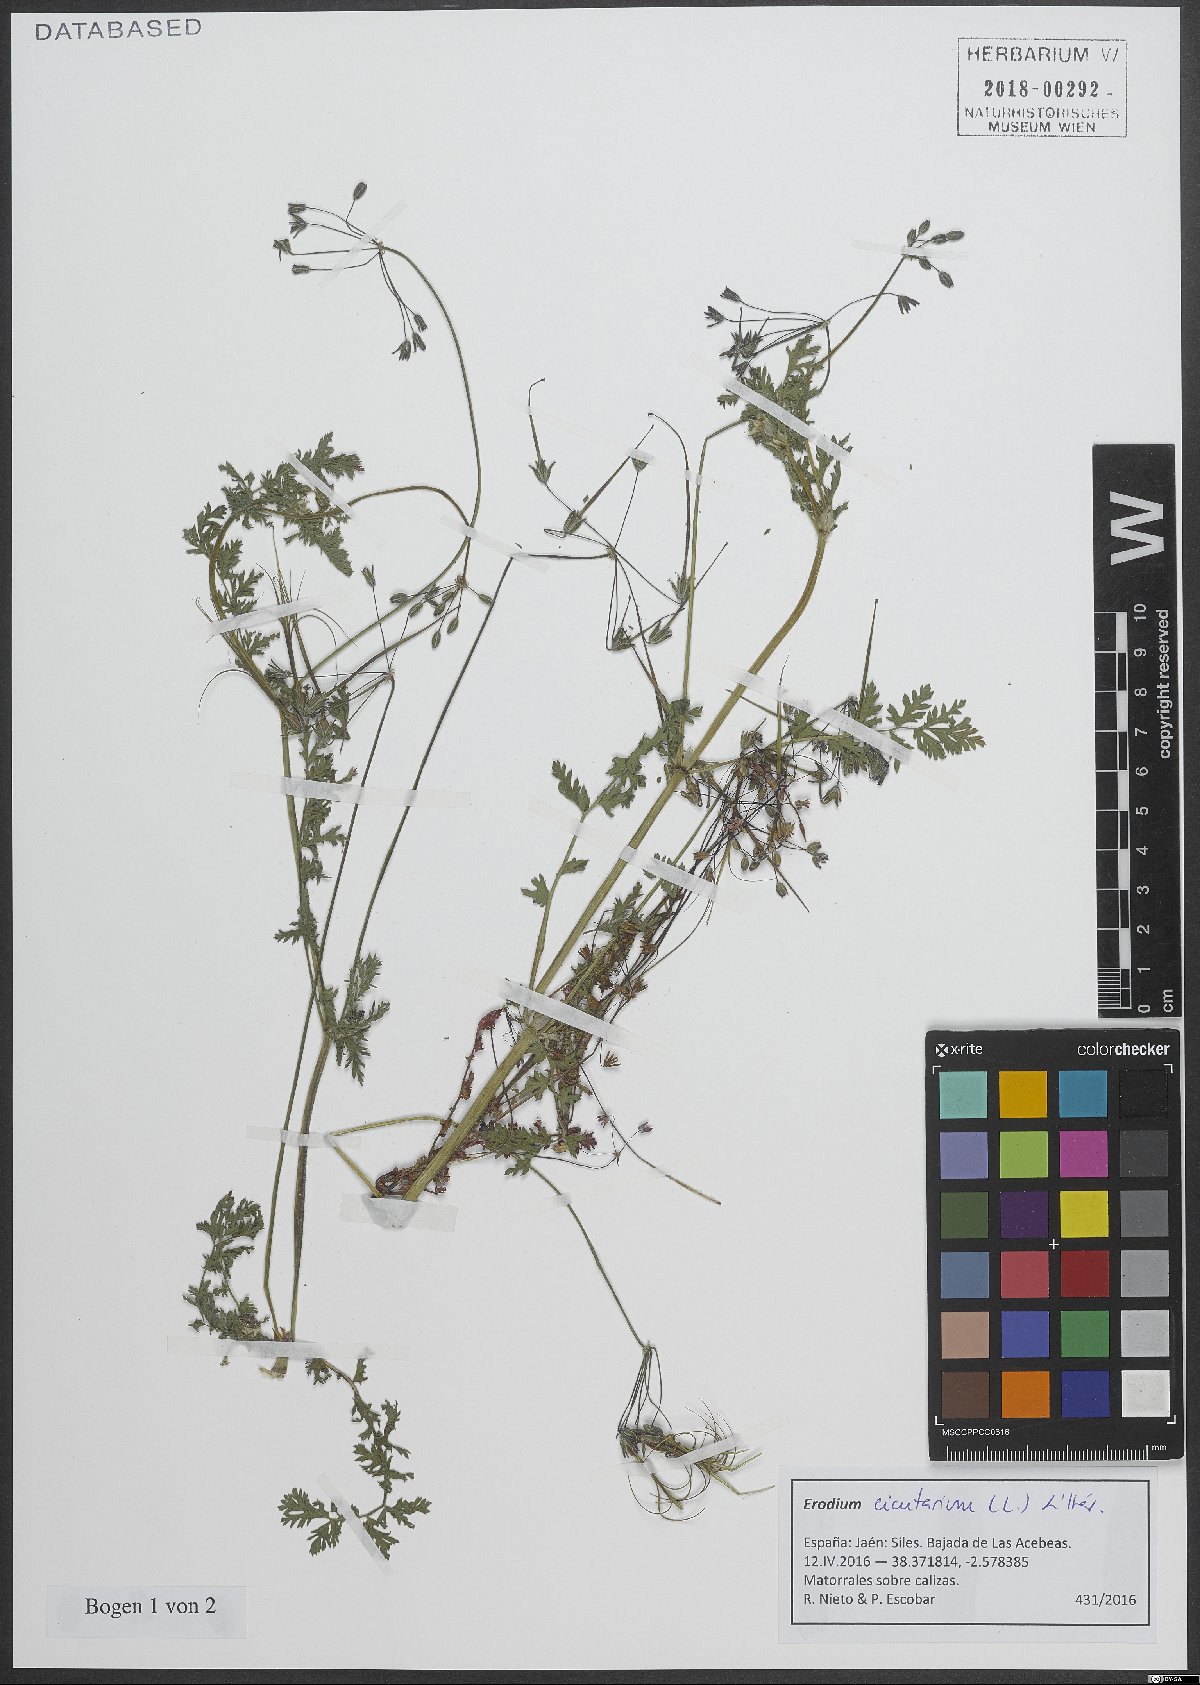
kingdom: Plantae
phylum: Tracheophyta
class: Magnoliopsida
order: Geraniales
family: Geraniaceae
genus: Erodium
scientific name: Erodium cicutarium
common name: Common stork's-bill
